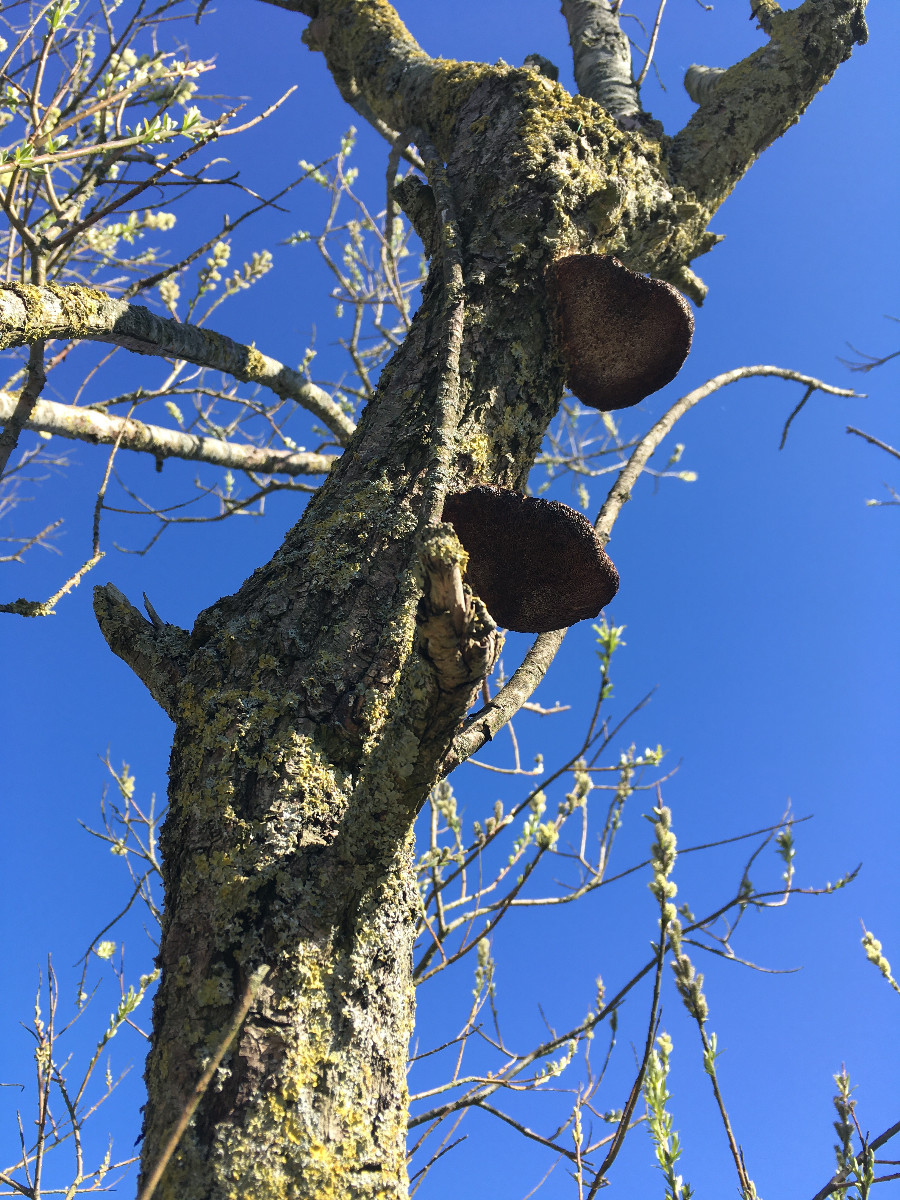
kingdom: Fungi
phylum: Basidiomycota
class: Agaricomycetes
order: Polyporales
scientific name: Polyporales
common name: poresvampordenen
